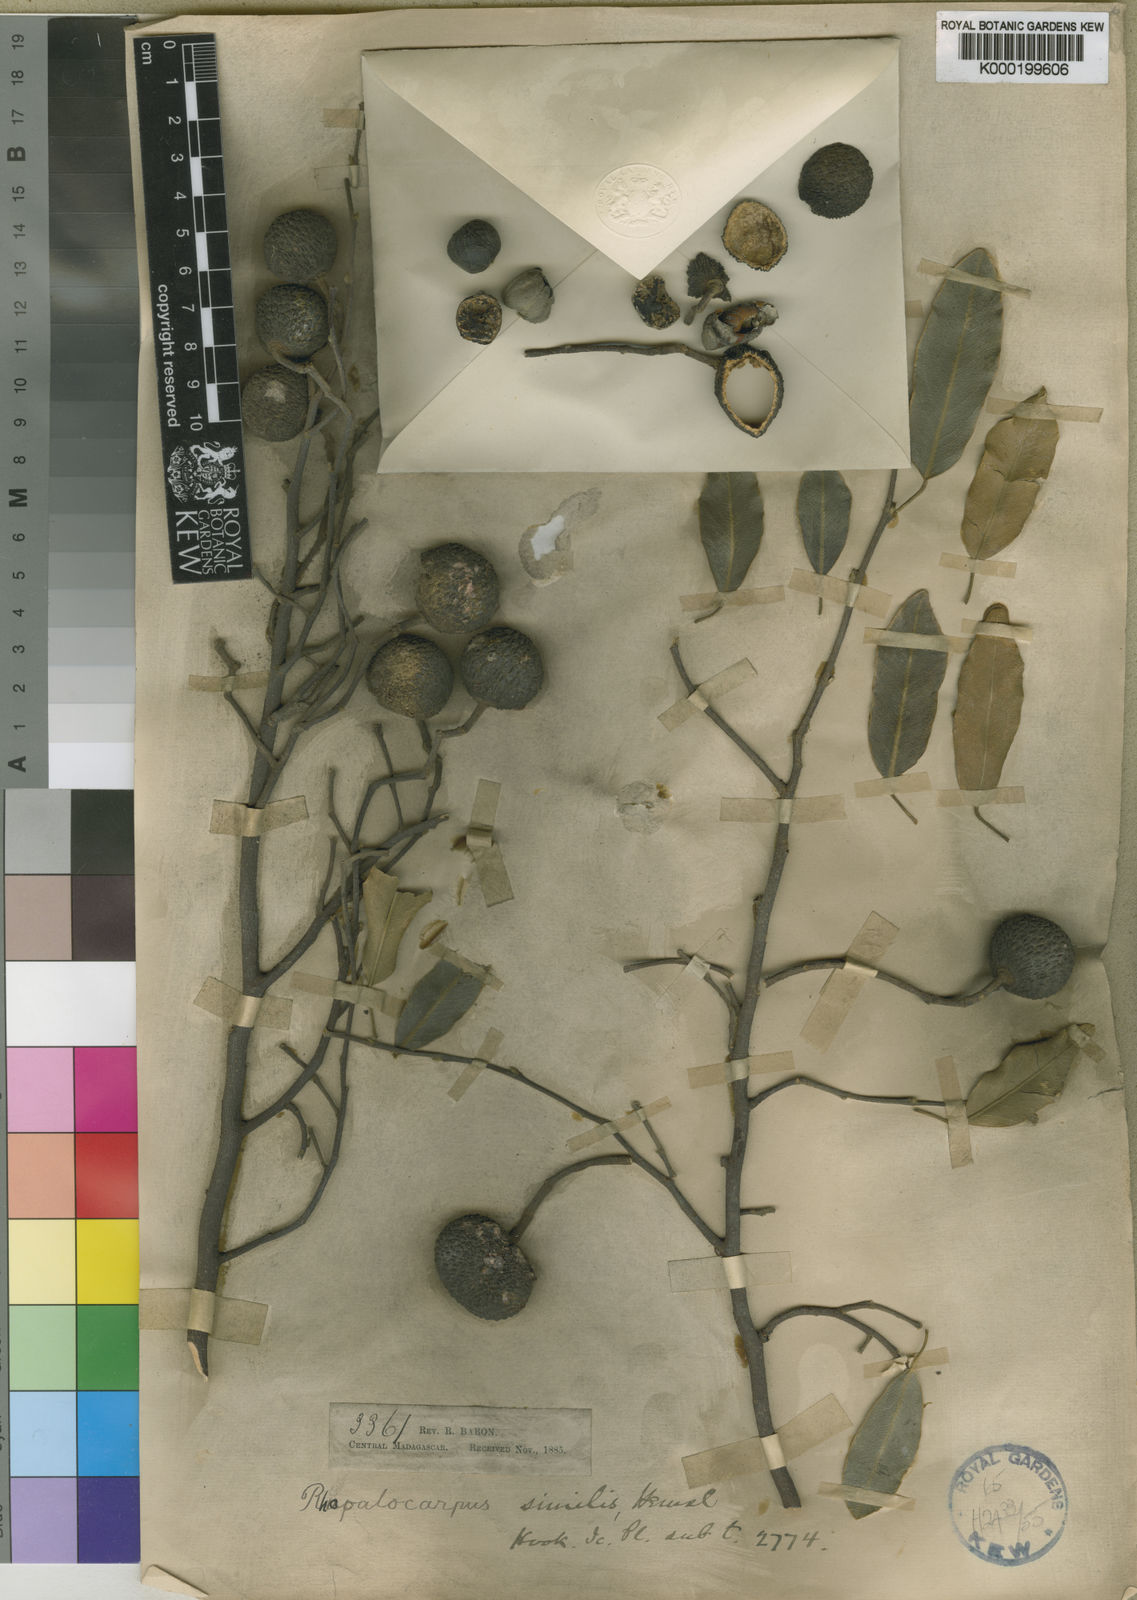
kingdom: Plantae
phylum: Tracheophyta
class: Magnoliopsida
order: Malvales
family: Sphaerosepalaceae
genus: Rhopalocarpus
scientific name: Rhopalocarpus similis
